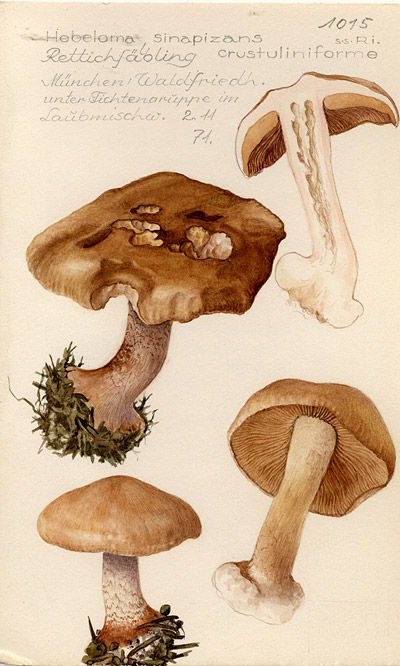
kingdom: Fungi
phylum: Basidiomycota
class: Agaricomycetes
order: Agaricales
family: Hymenogastraceae
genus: Hebeloma
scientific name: Hebeloma sinapizans
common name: Bitter poisonpie
